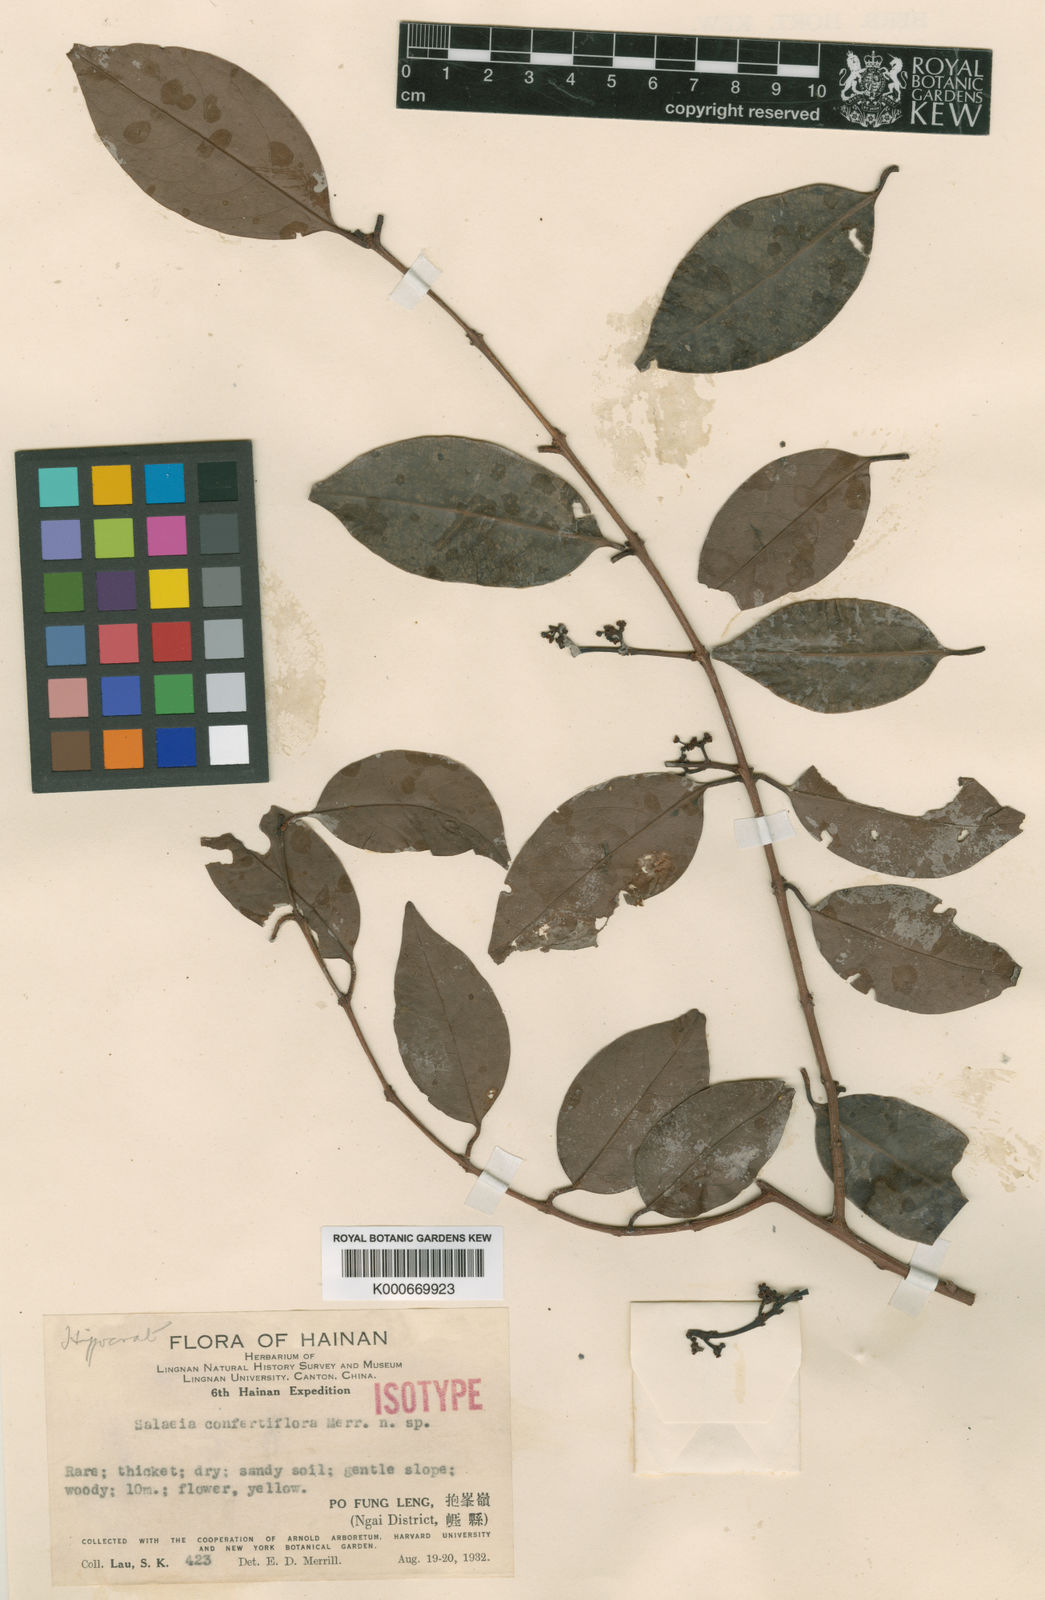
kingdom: Plantae
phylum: Tracheophyta
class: Magnoliopsida
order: Celastrales
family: Celastraceae
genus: Salacia
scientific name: Salacia confertiflora
